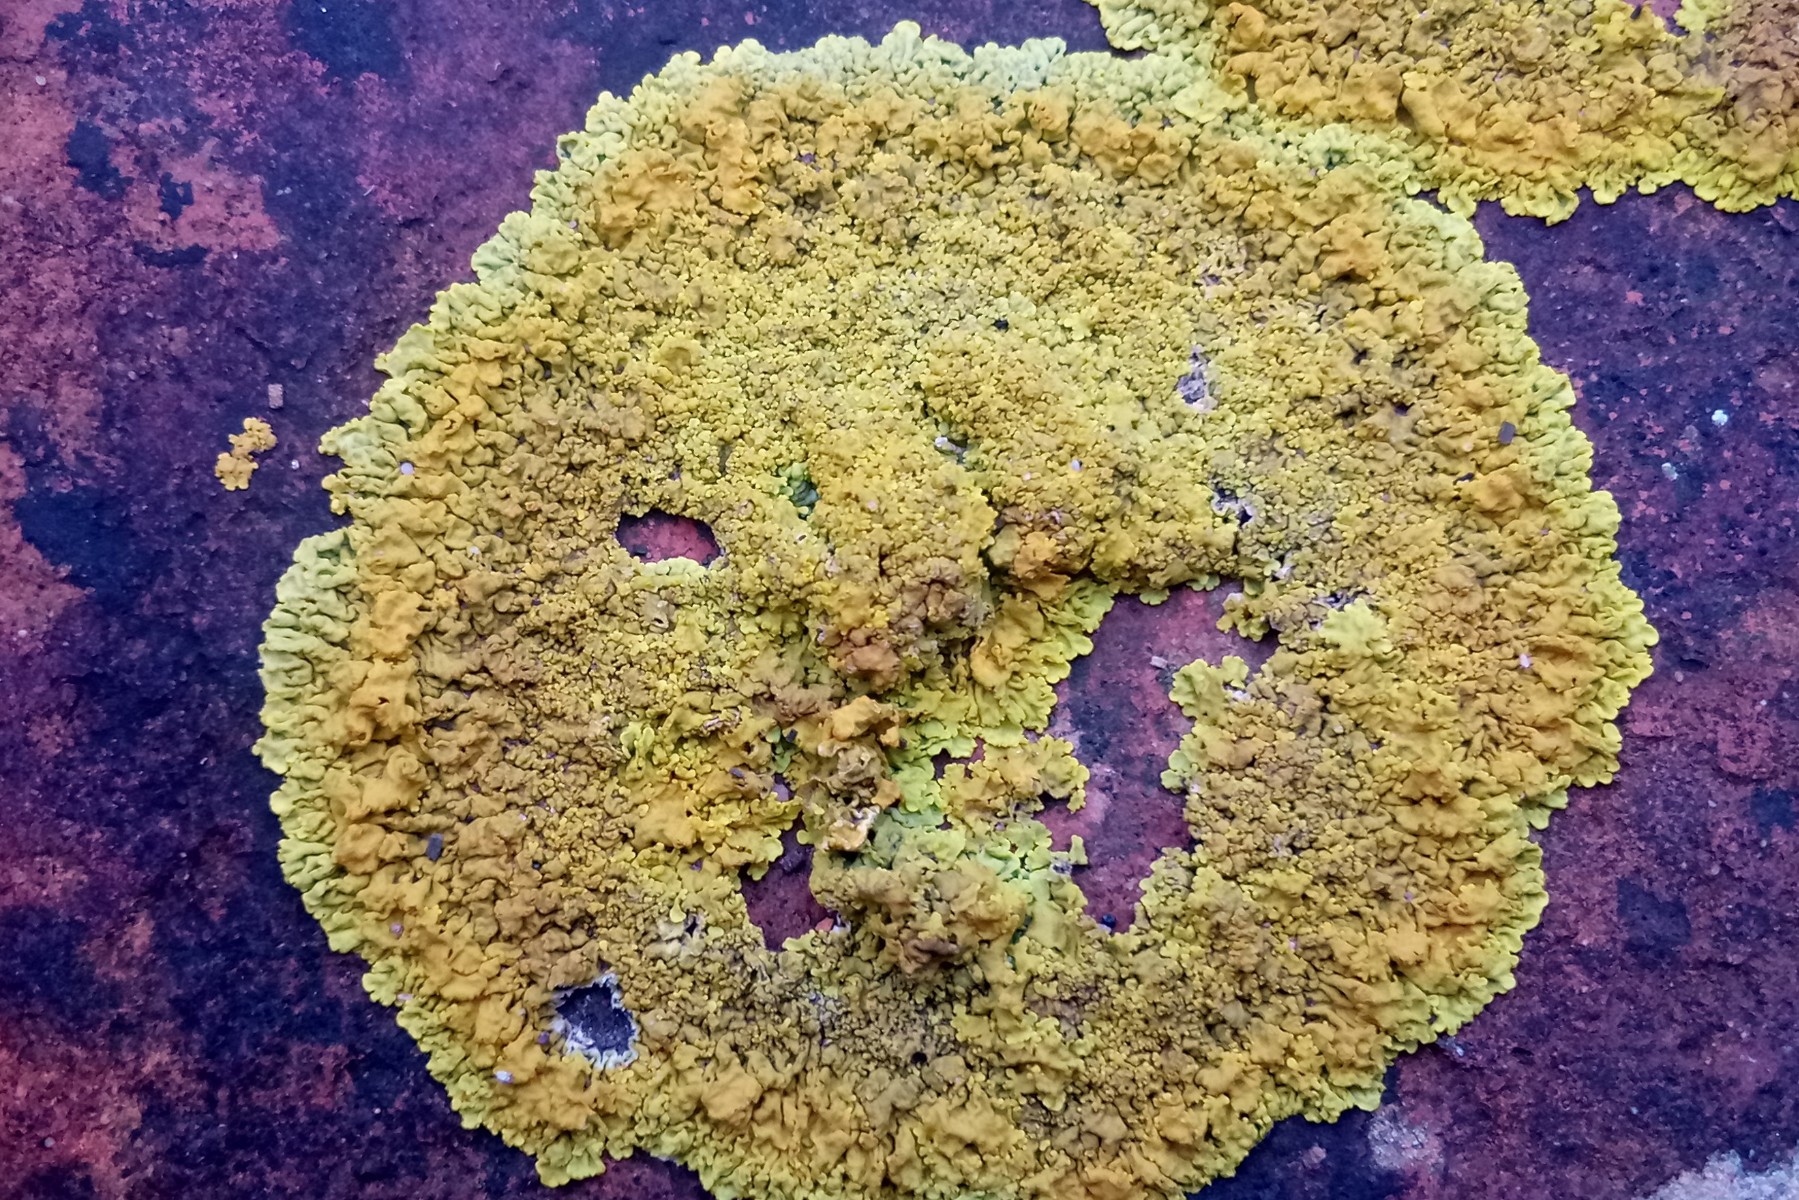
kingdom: Fungi
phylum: Ascomycota
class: Lecanoromycetes
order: Teloschistales
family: Teloschistaceae
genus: Xanthoria
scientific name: Xanthoria calcicola
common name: vortet væggelav
